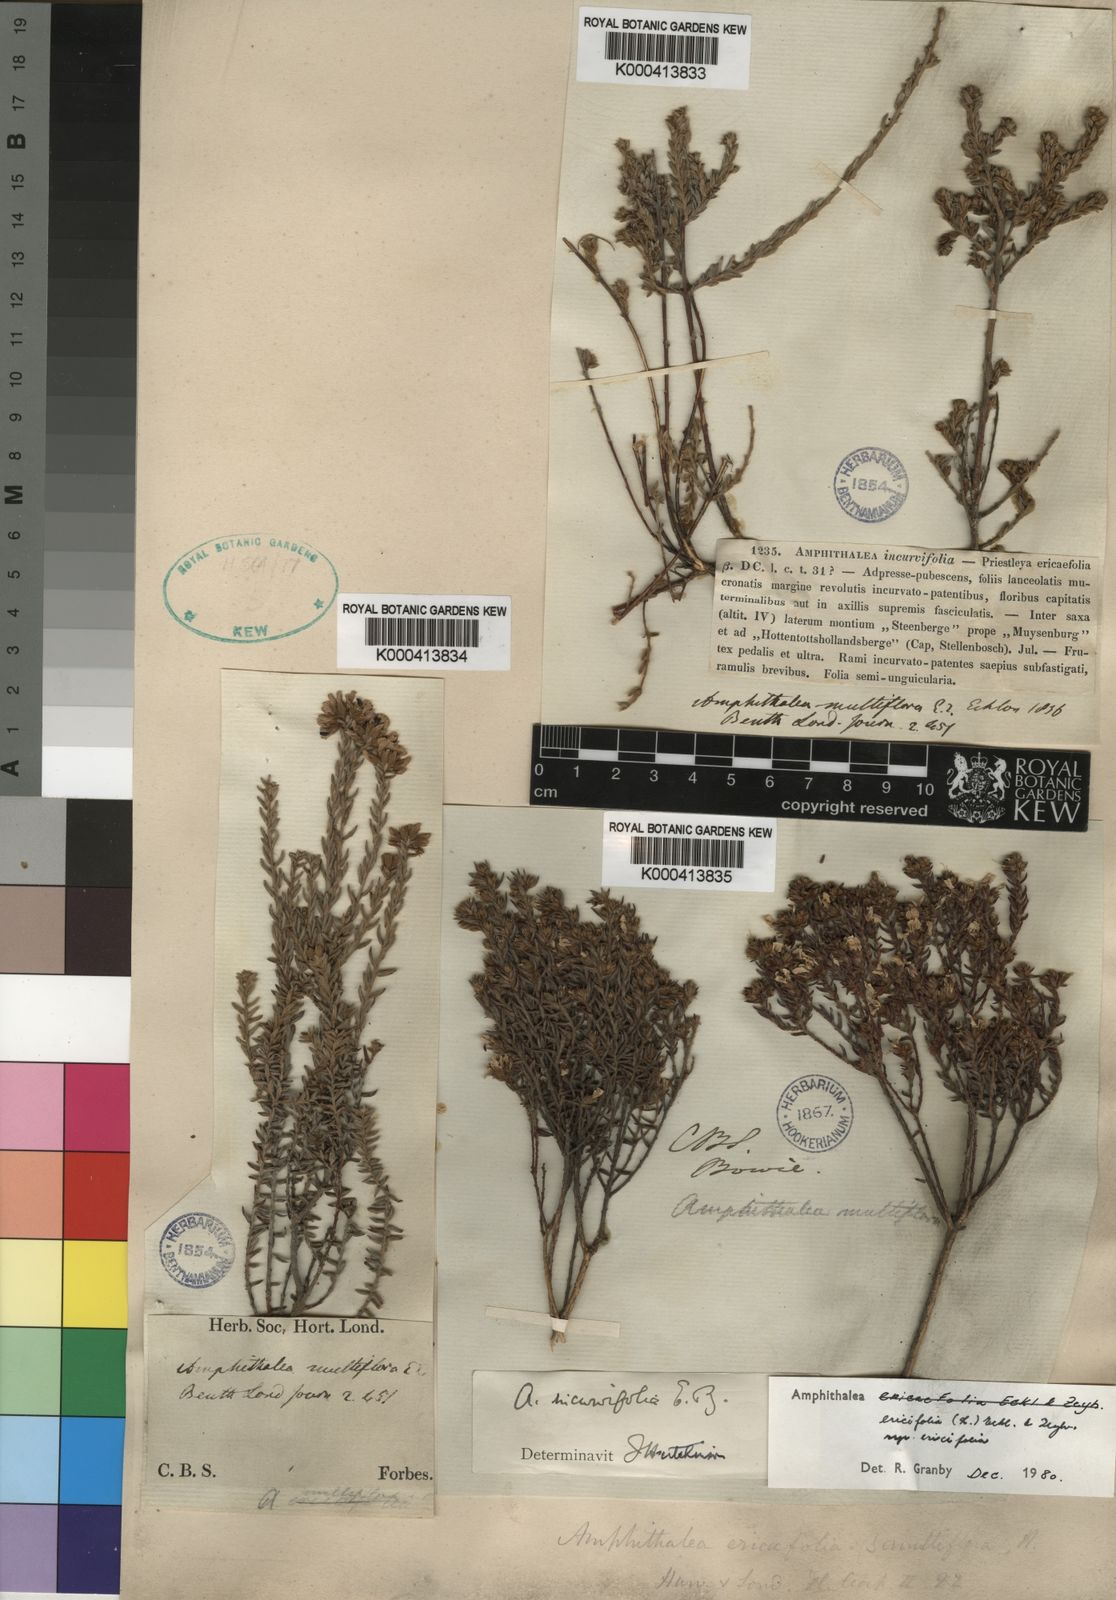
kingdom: Plantae
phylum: Tracheophyta
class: Magnoliopsida
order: Fabales
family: Fabaceae
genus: Amphithalea
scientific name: Amphithalea ericifolia
